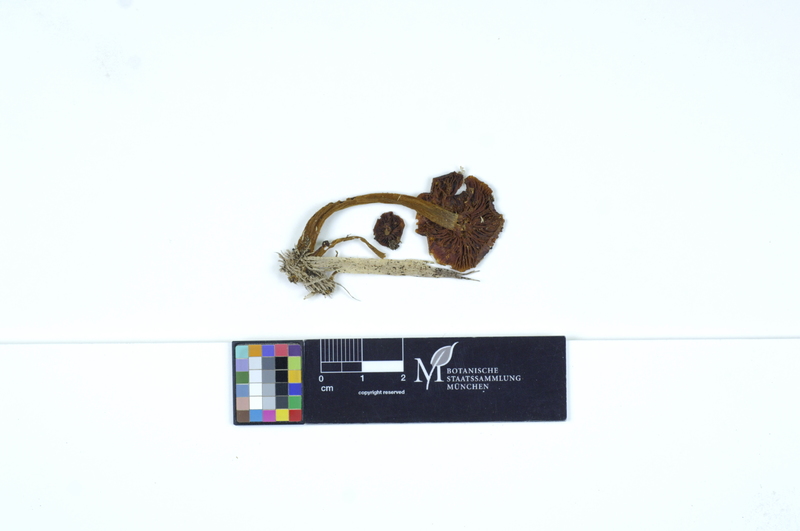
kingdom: Plantae
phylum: Tracheophyta
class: Magnoliopsida
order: Malpighiales
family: Salicaceae
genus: Populus
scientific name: Populus
